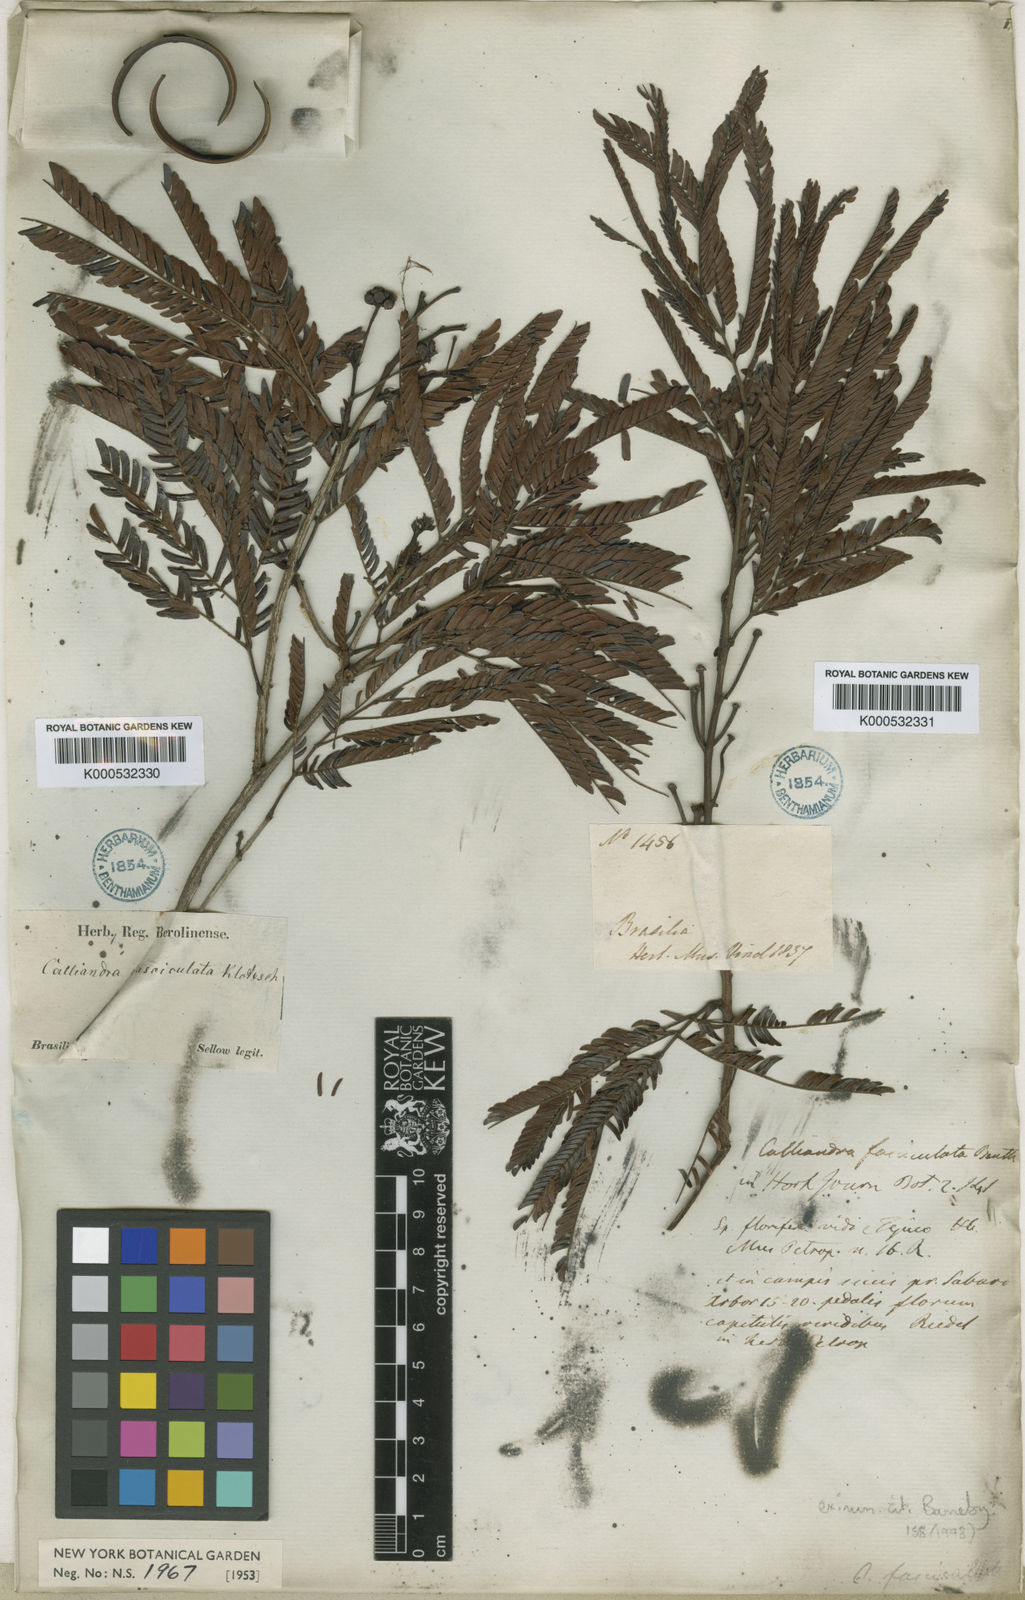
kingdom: Plantae
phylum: Tracheophyta
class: Magnoliopsida
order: Fabales
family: Fabaceae
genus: Calliandra
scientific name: Calliandra fasciculata
